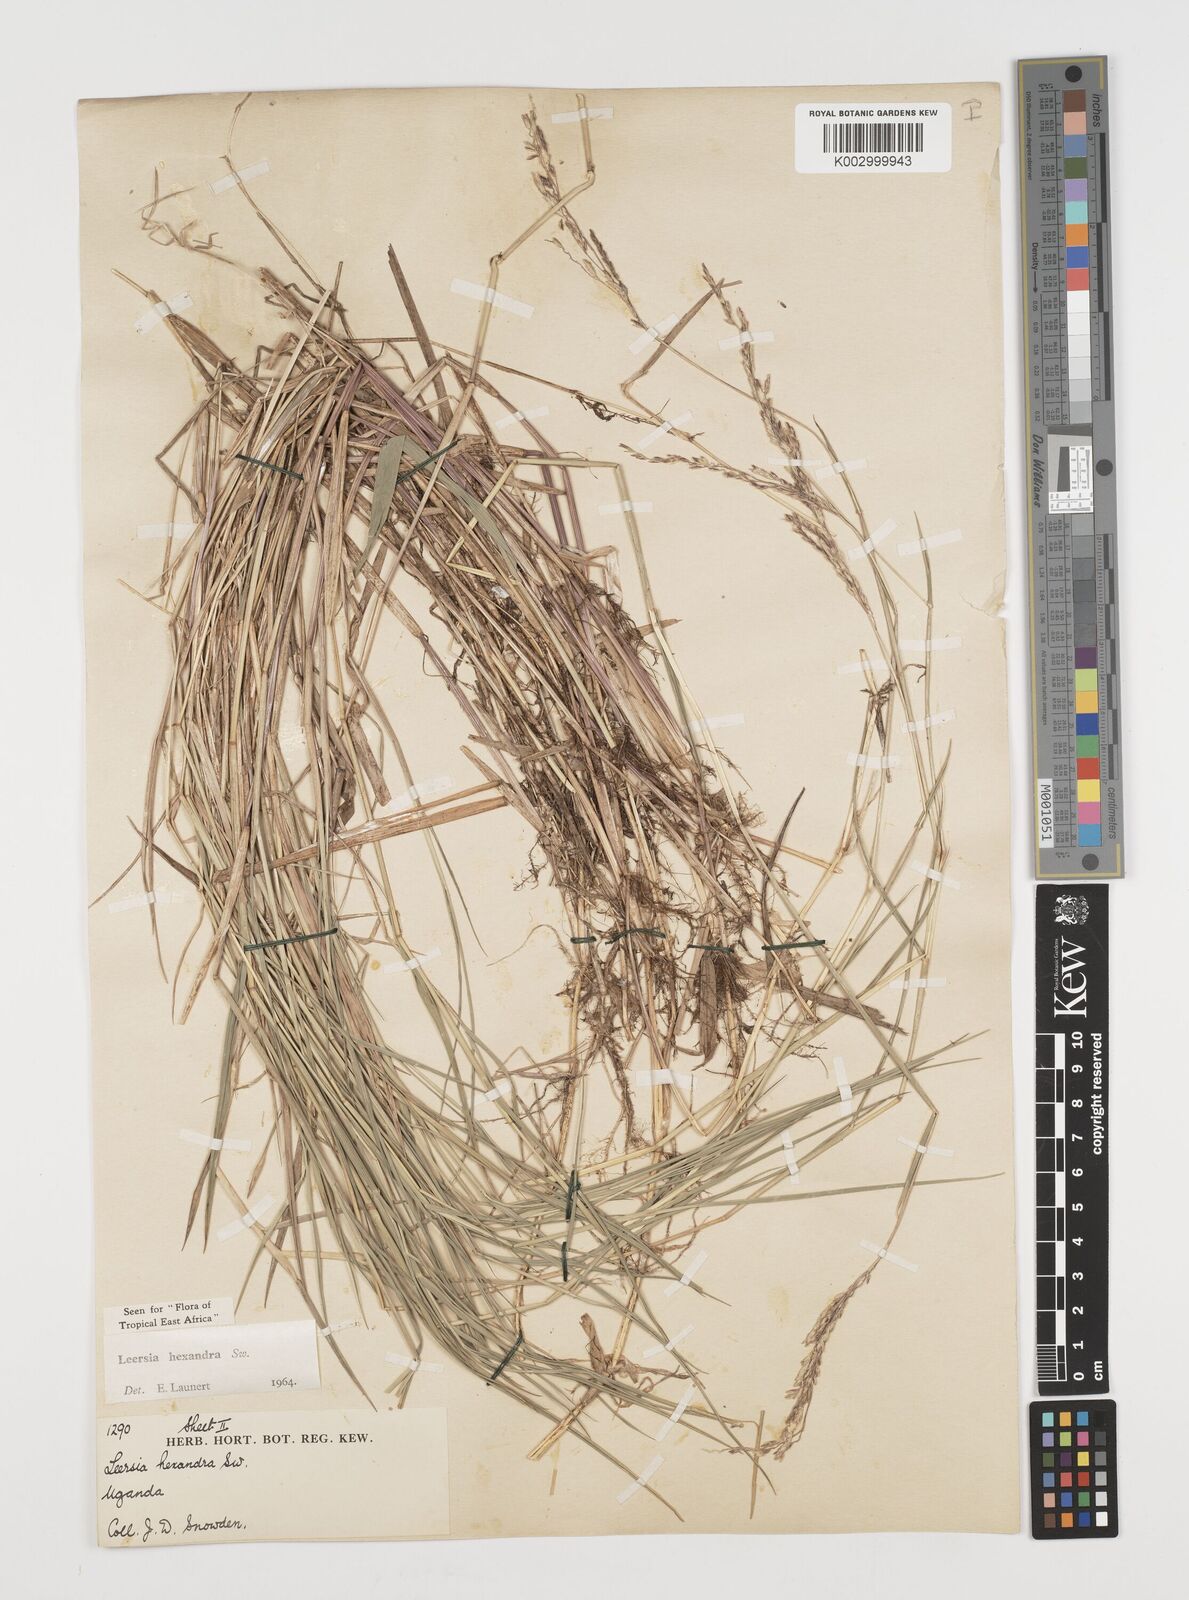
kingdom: Plantae
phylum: Tracheophyta
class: Liliopsida
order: Poales
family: Poaceae
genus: Leersia
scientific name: Leersia hexandra
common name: Southern cut grass
